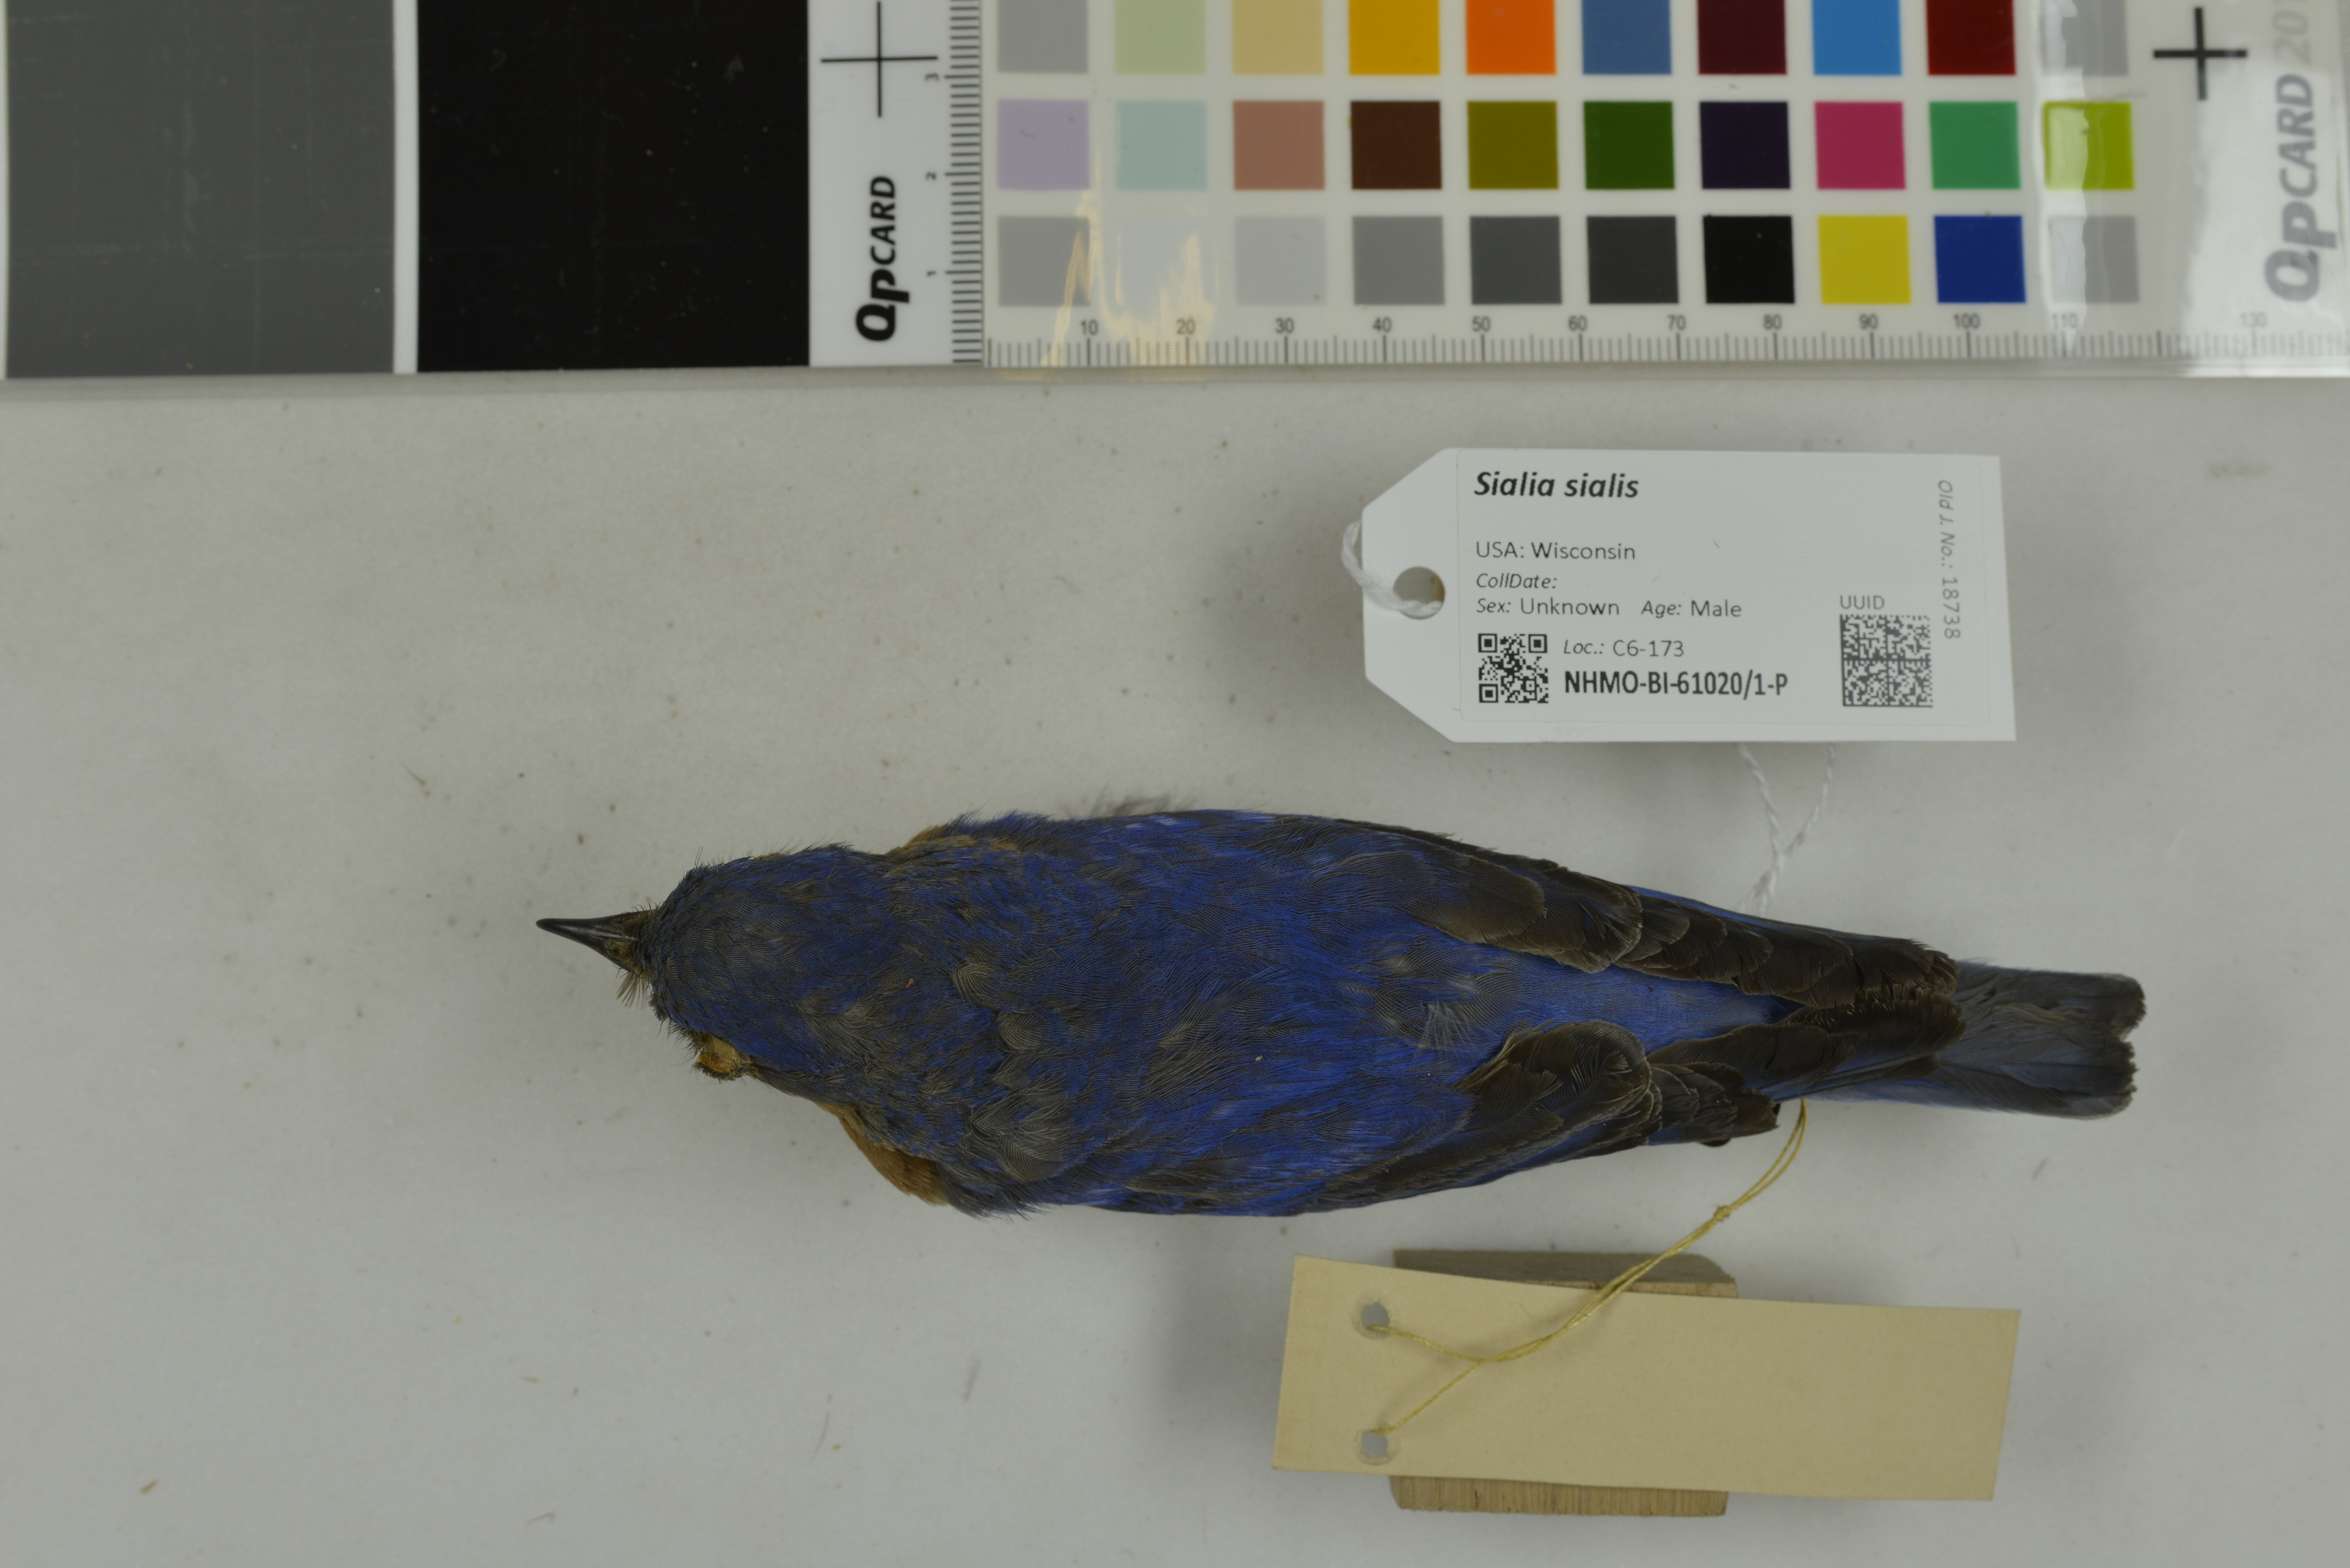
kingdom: Animalia
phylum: Chordata
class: Aves
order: Passeriformes
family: Turdidae
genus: Sialia
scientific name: Sialia sialis
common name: Eastern bluebird
